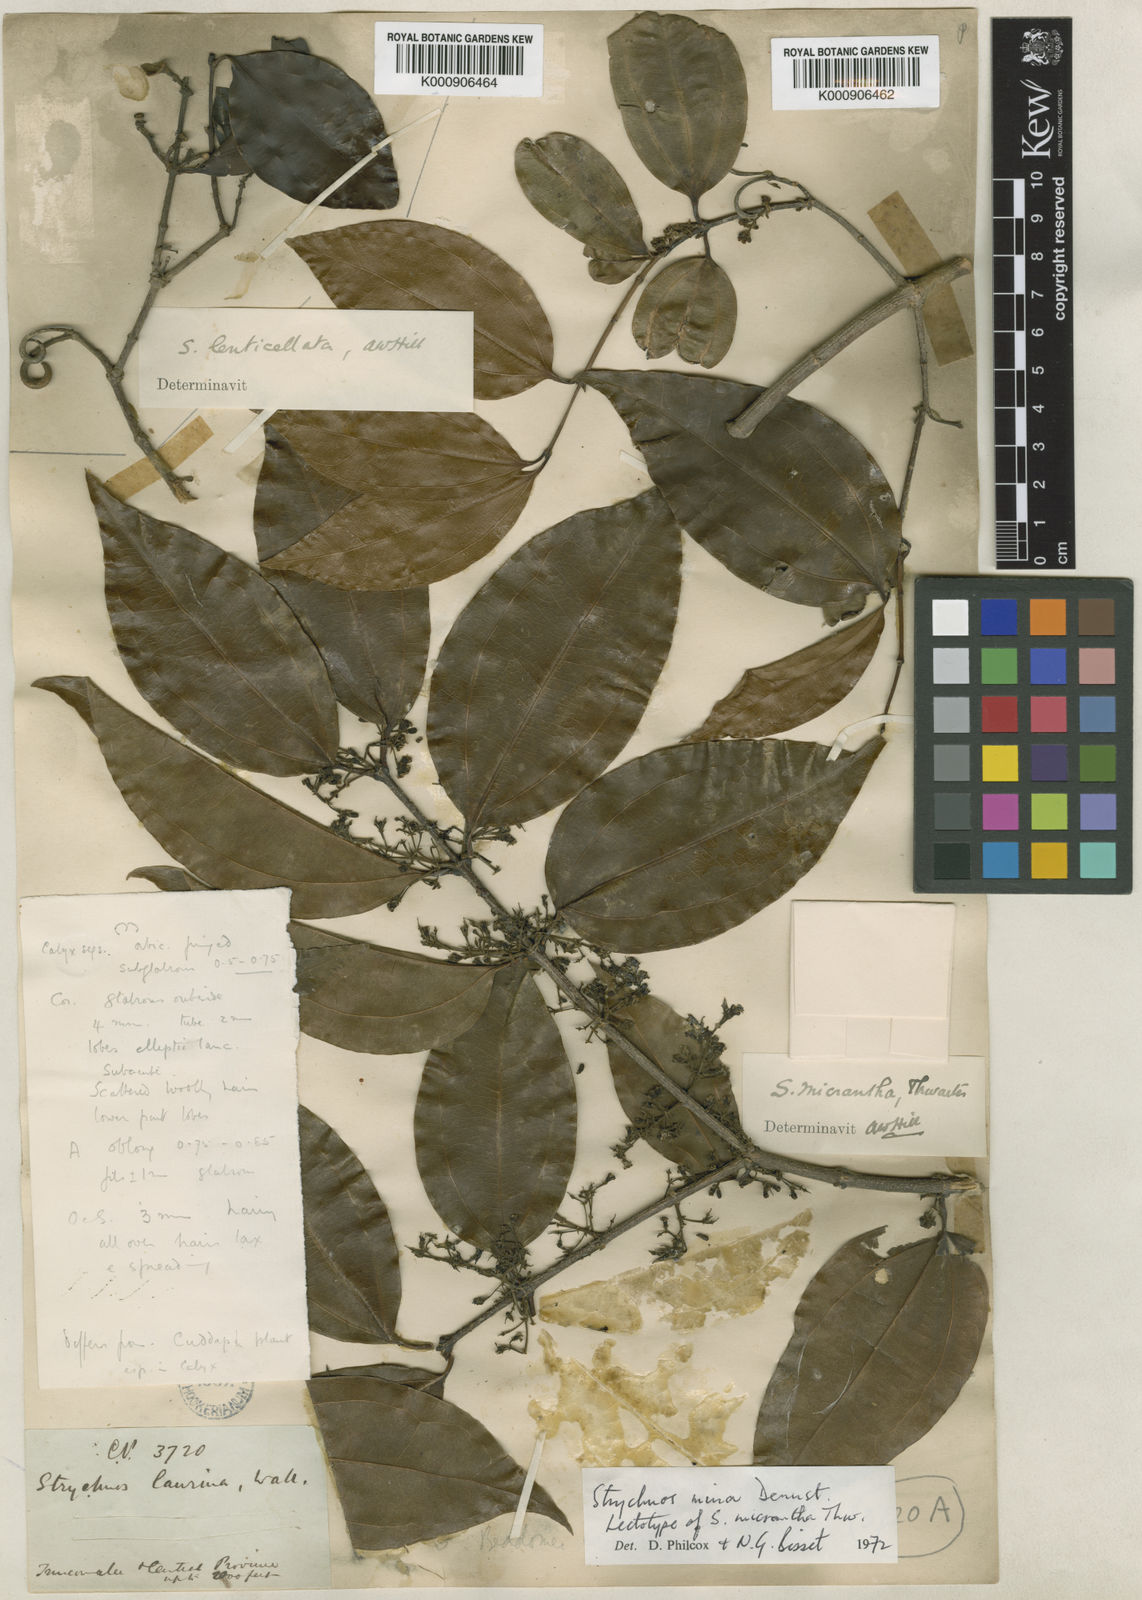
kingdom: Plantae
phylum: Tracheophyta
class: Magnoliopsida
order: Gentianales
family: Loganiaceae
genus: Strychnos
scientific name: Strychnos minor
